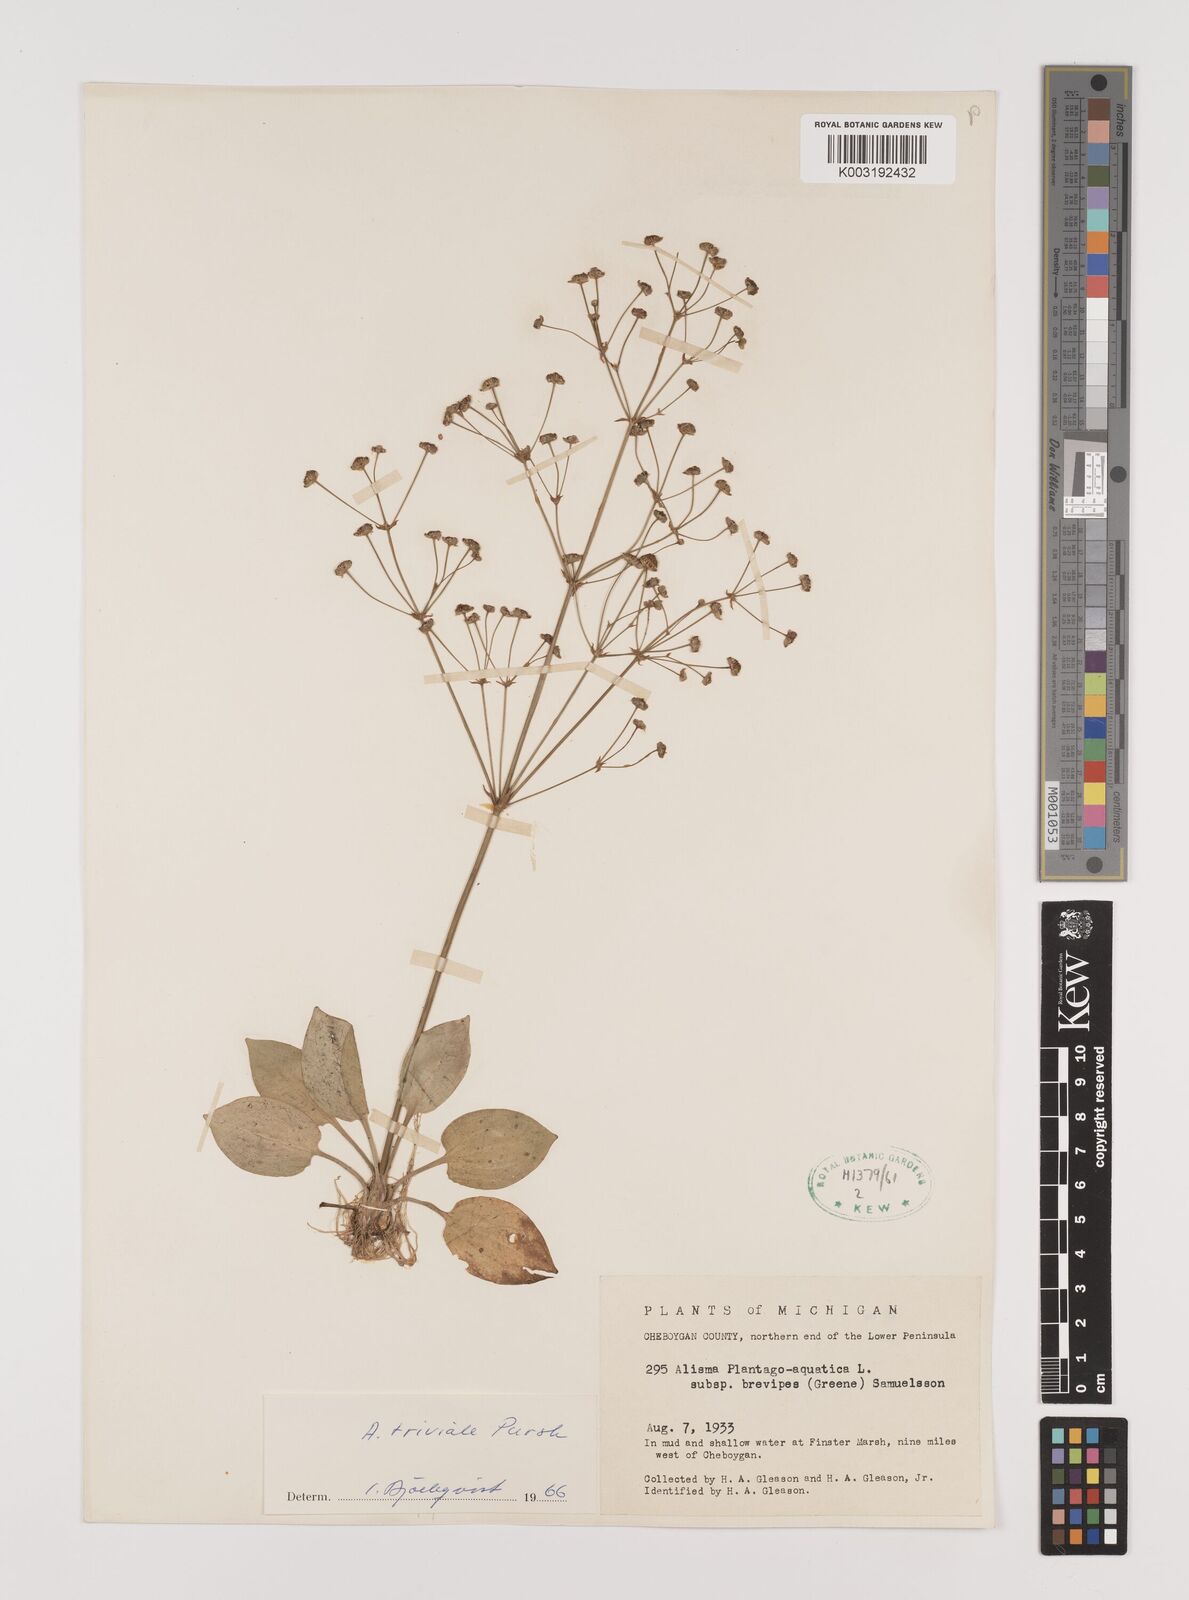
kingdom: Plantae
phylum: Tracheophyta
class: Liliopsida
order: Alismatales
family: Alismataceae
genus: Alisma
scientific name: Alisma triviale
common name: Northern water-plantain
